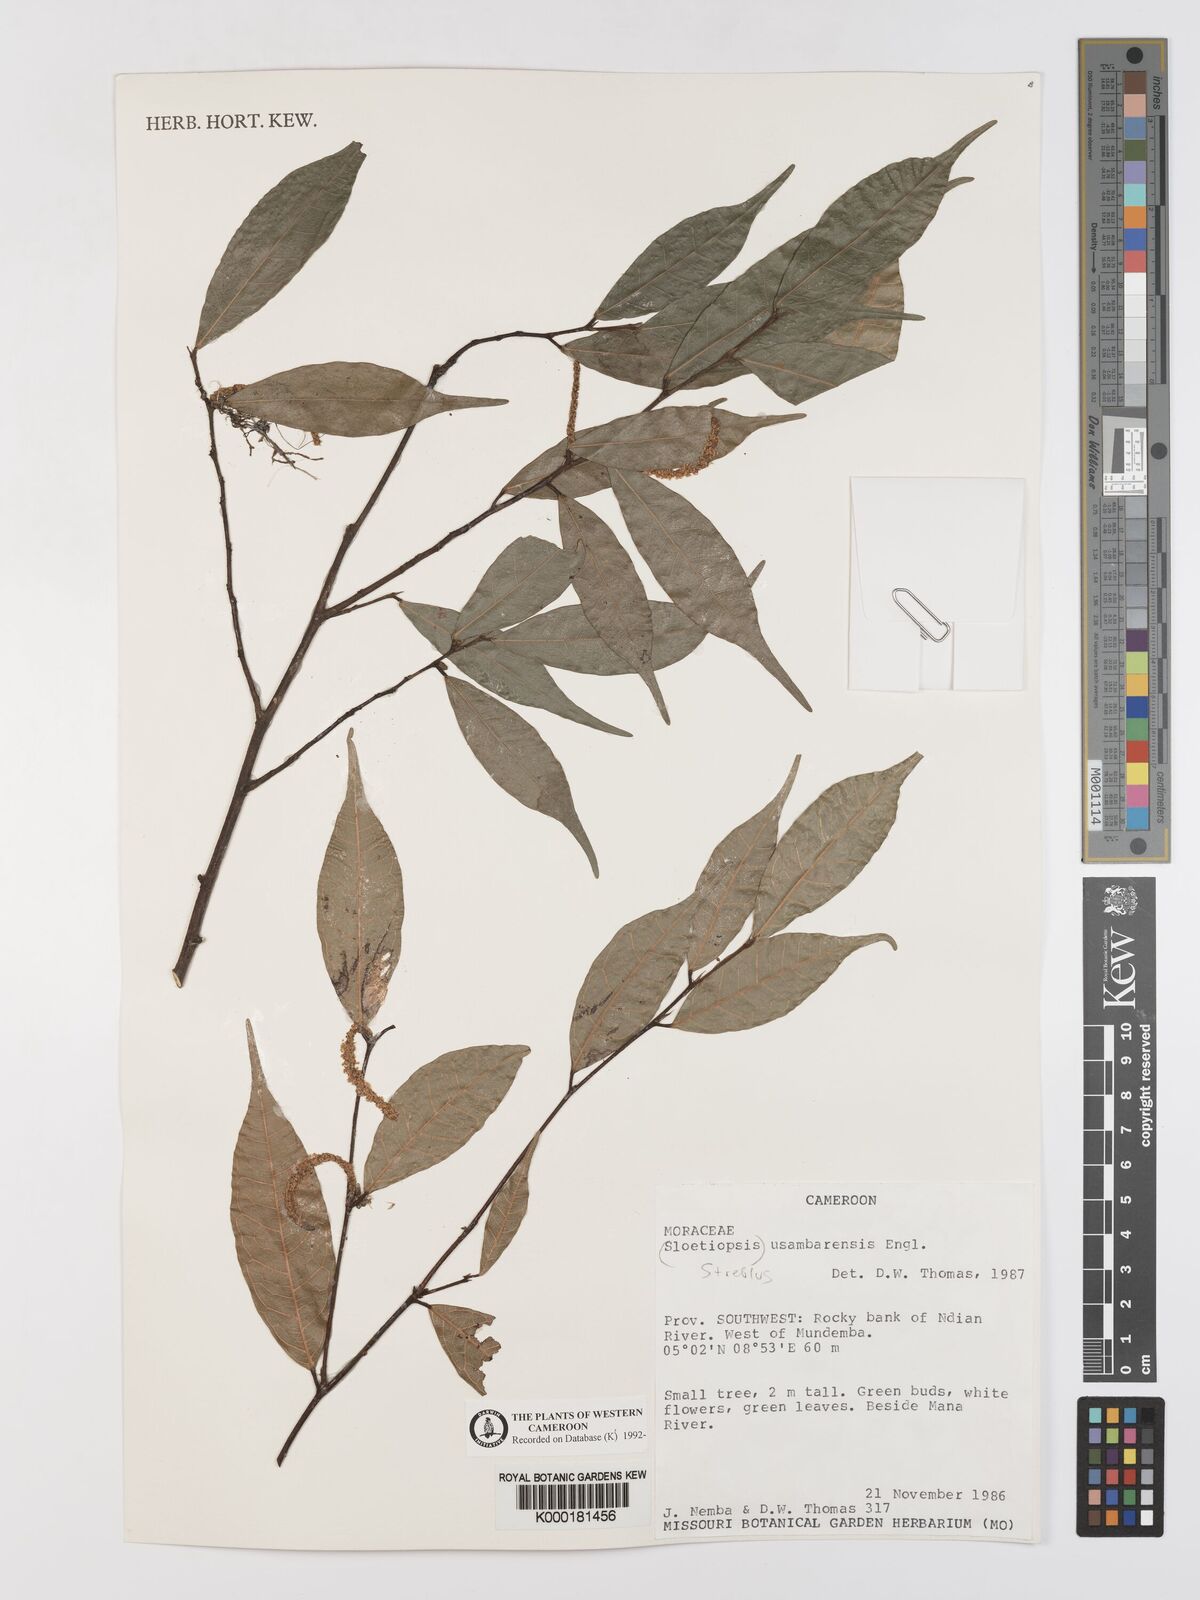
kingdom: Plantae
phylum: Tracheophyta
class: Magnoliopsida
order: Rosales
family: Moraceae
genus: Sloetiopsis
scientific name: Sloetiopsis usambarensis
